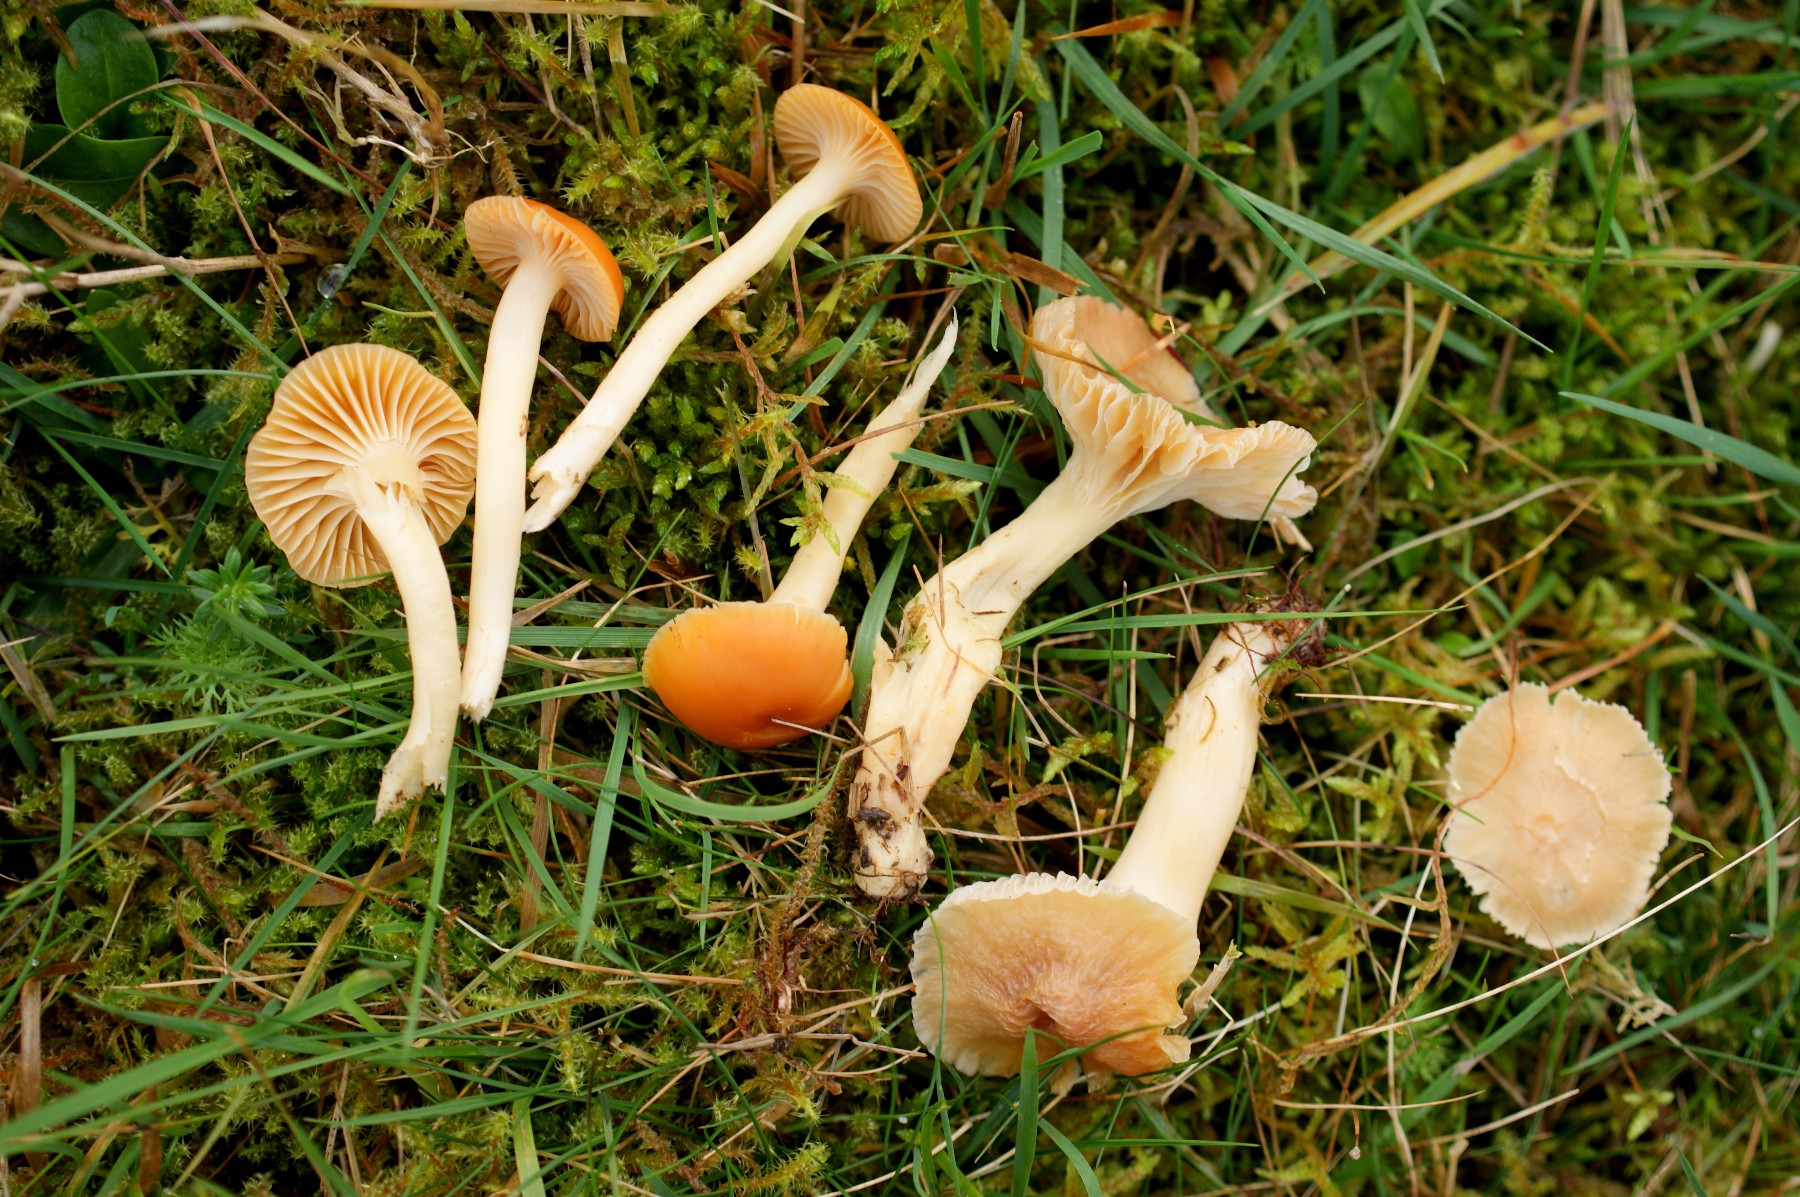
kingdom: Fungi
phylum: Basidiomycota
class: Agaricomycetes
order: Agaricales
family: Hygrophoraceae
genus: Cuphophyllus
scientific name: Cuphophyllus pratensis
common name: eng-vokshat
